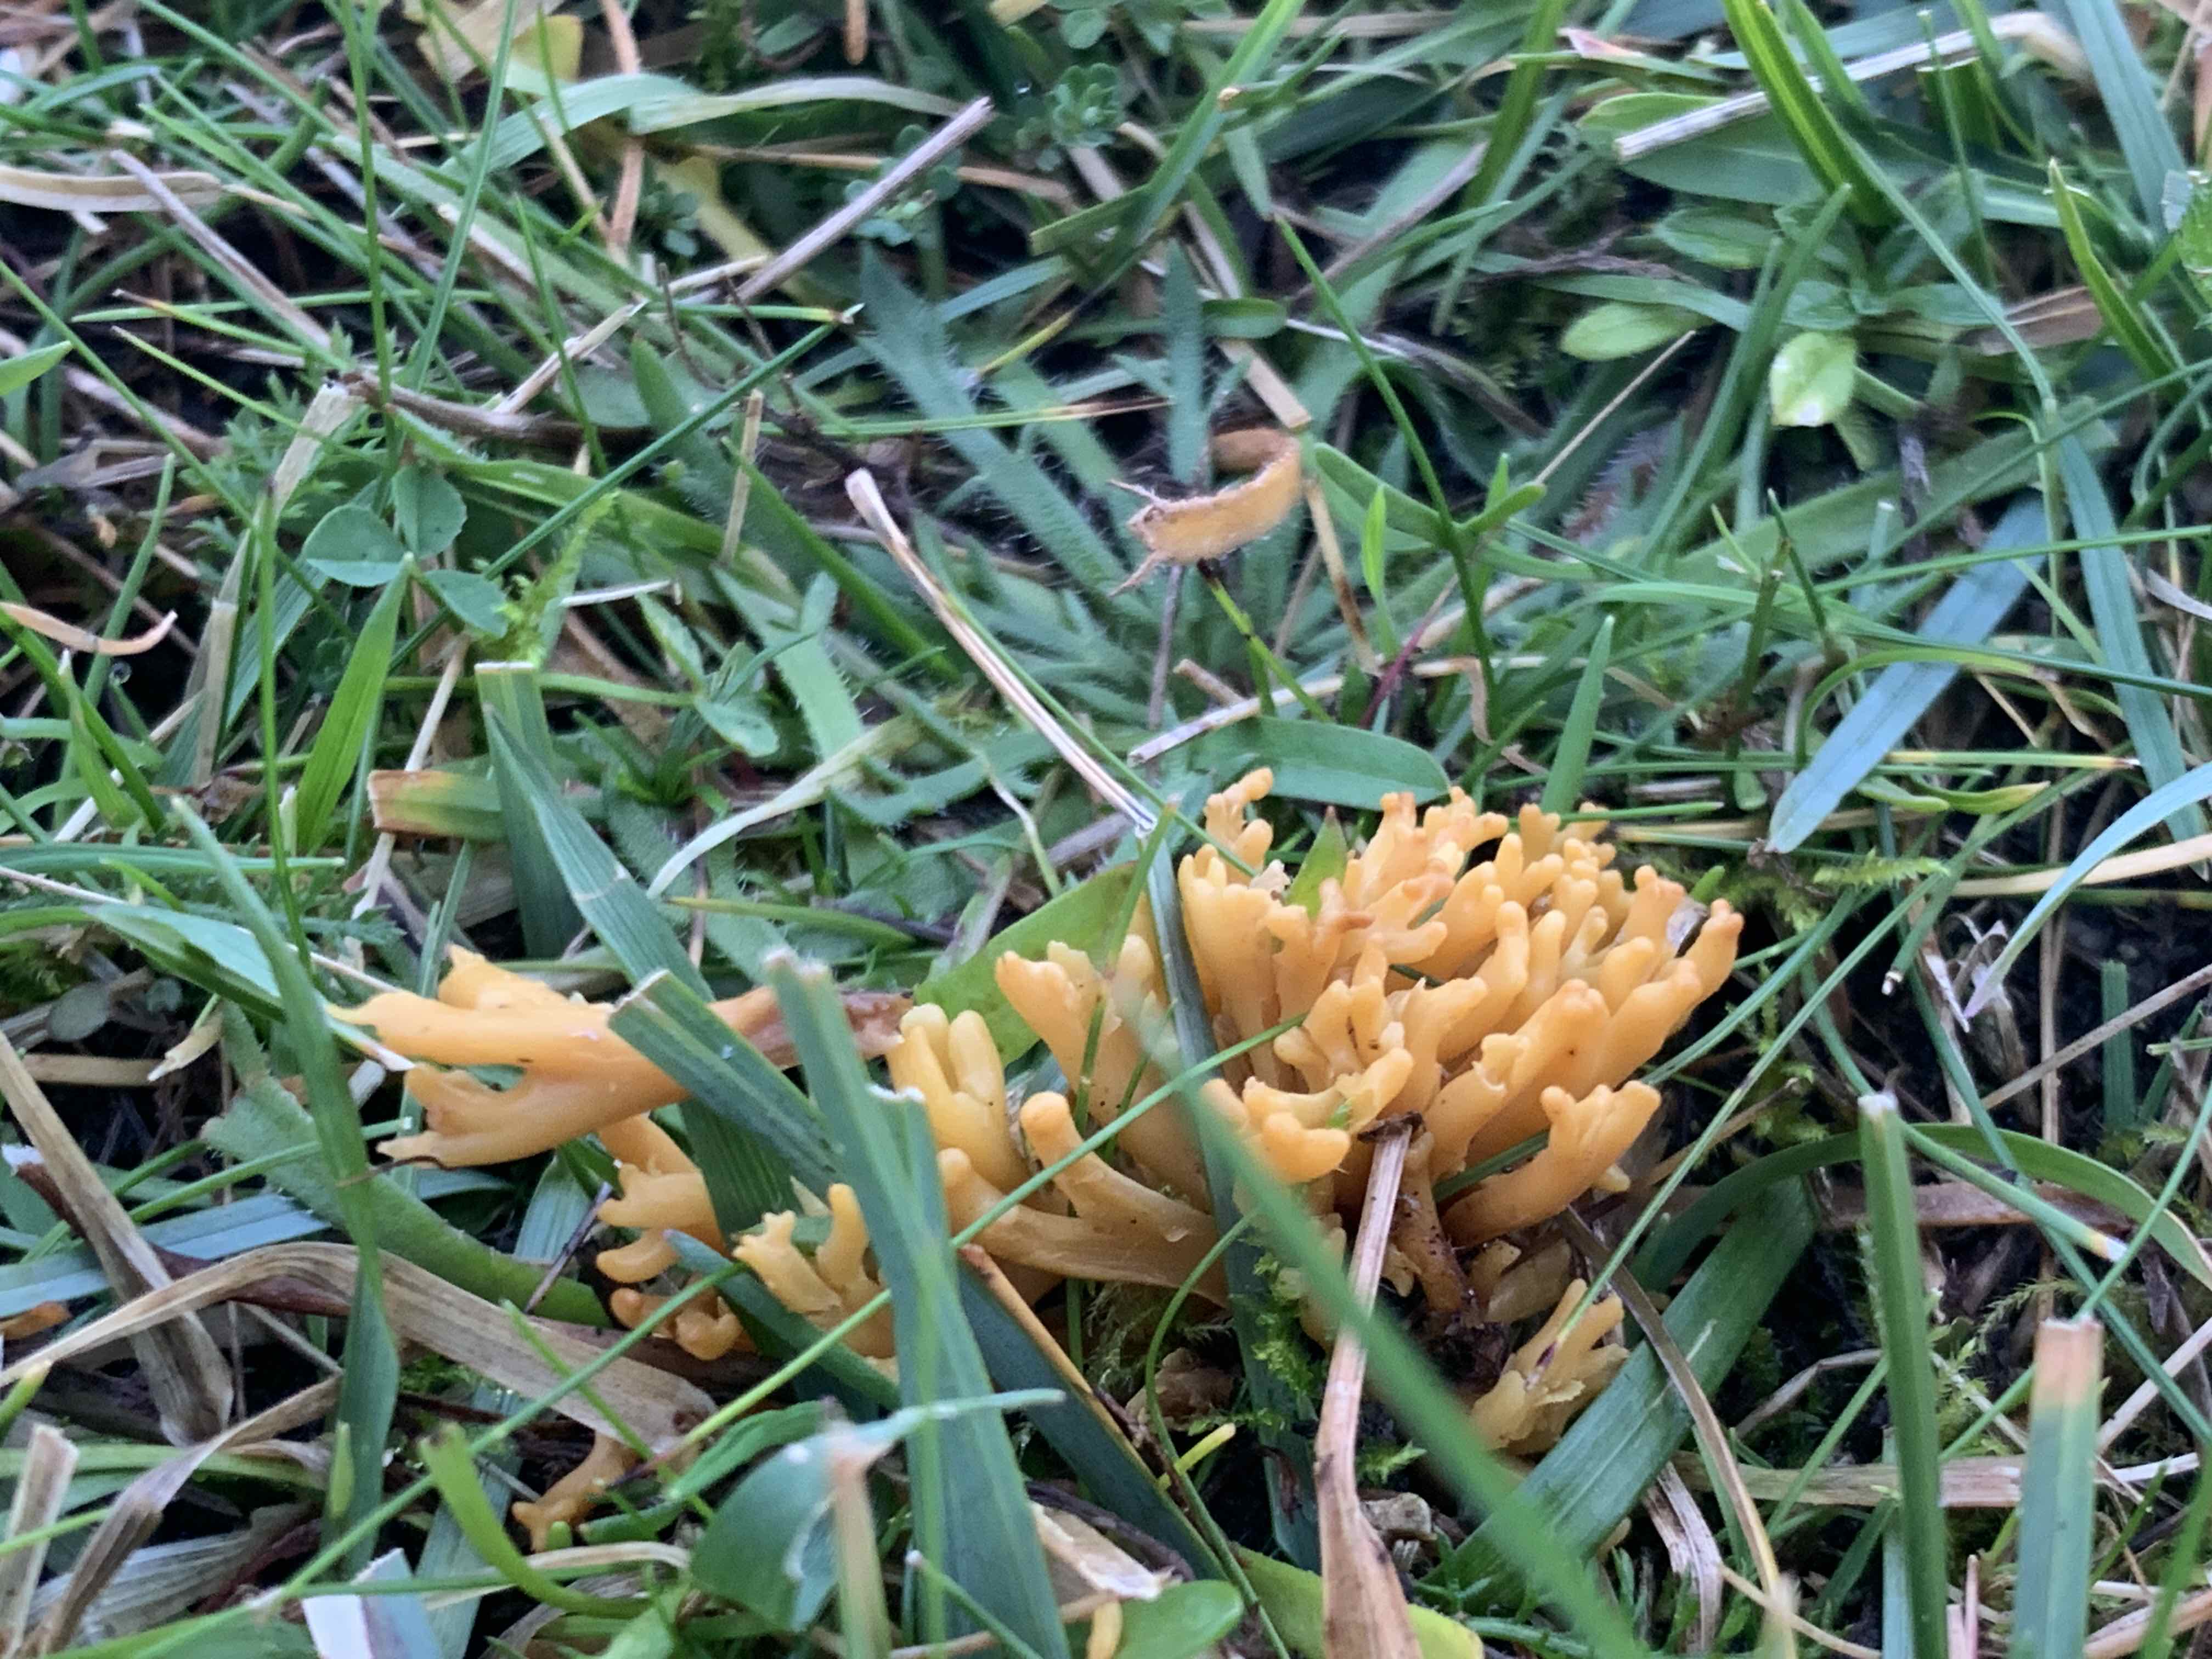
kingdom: Fungi
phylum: Basidiomycota
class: Agaricomycetes
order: Agaricales
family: Clavariaceae
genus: Clavulinopsis
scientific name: Clavulinopsis corniculata
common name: eng-køllesvamp
